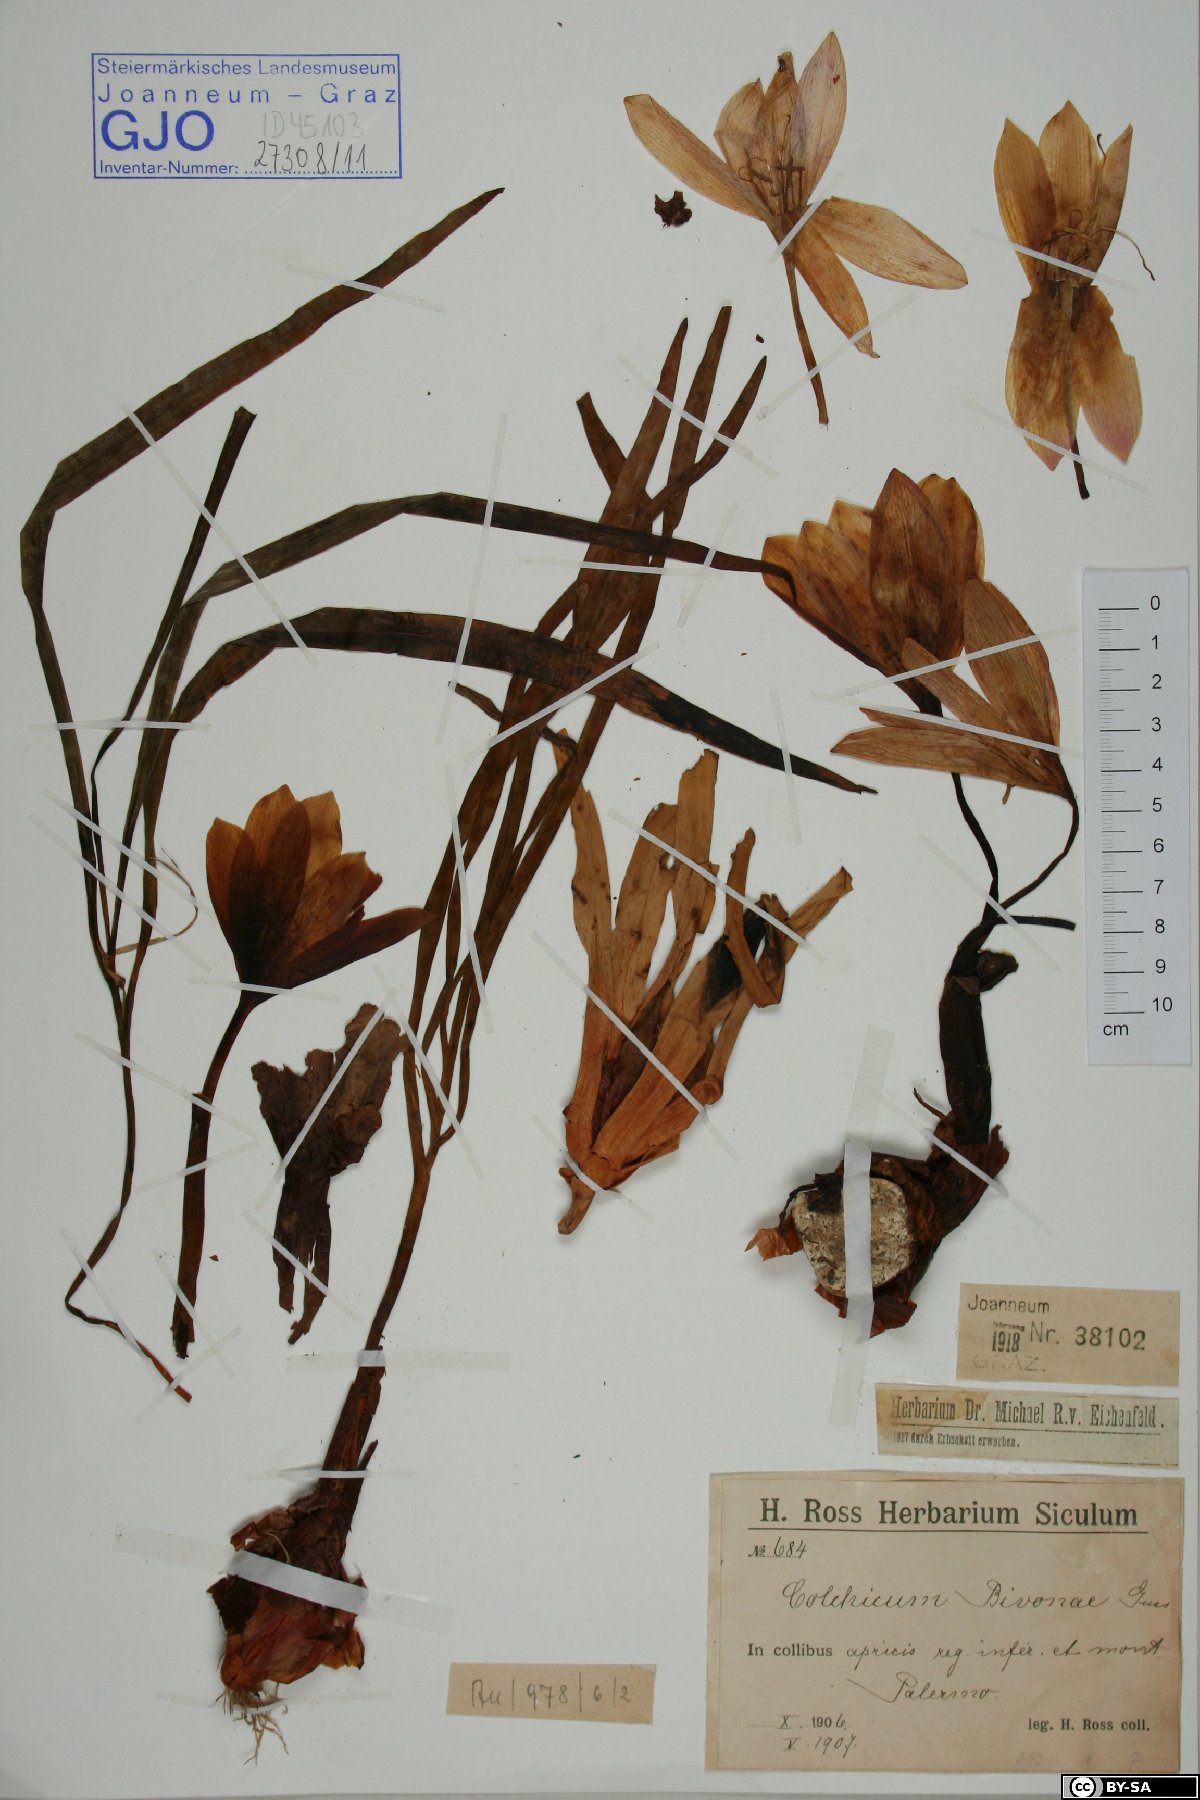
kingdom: Plantae
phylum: Tracheophyta
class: Liliopsida
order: Liliales
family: Colchicaceae
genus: Colchicum
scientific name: Colchicum bivonae
